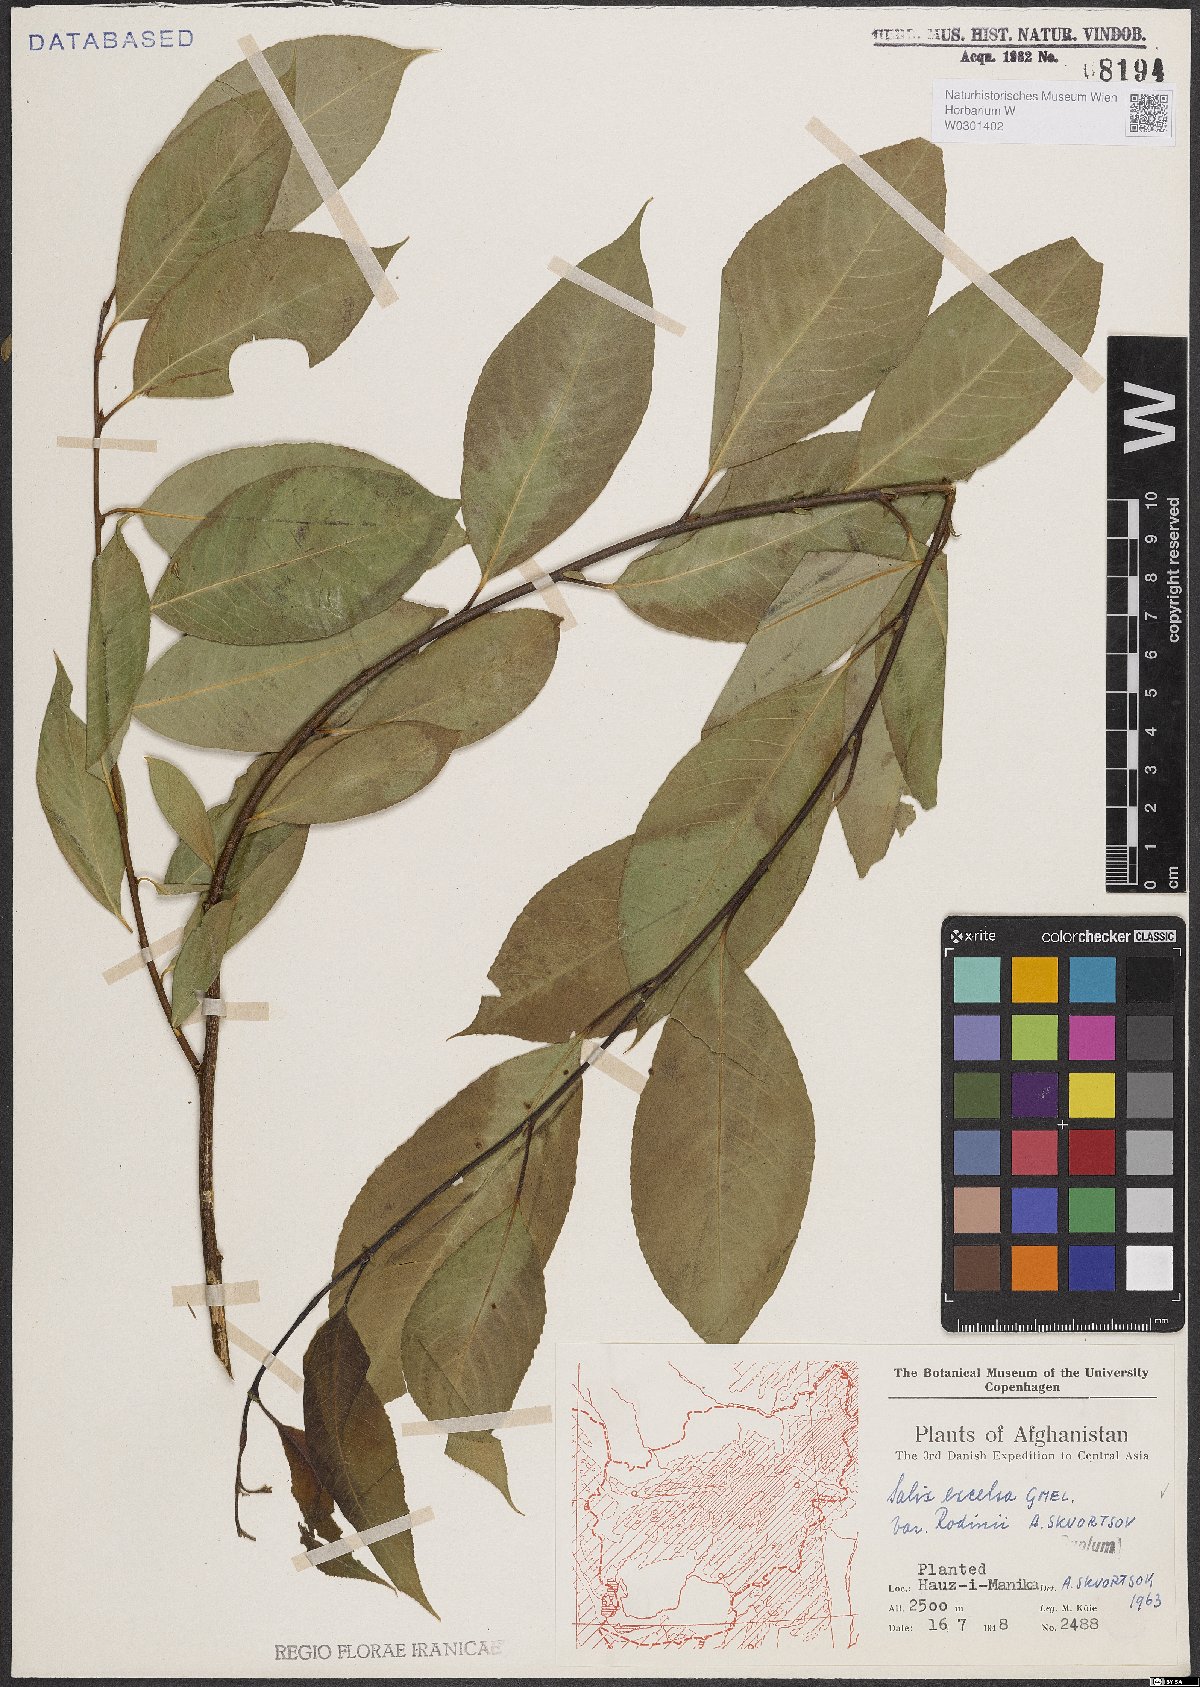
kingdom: Plantae
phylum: Tracheophyta
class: Magnoliopsida
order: Malpighiales
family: Salicaceae
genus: Salix
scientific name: Salix excelsa
